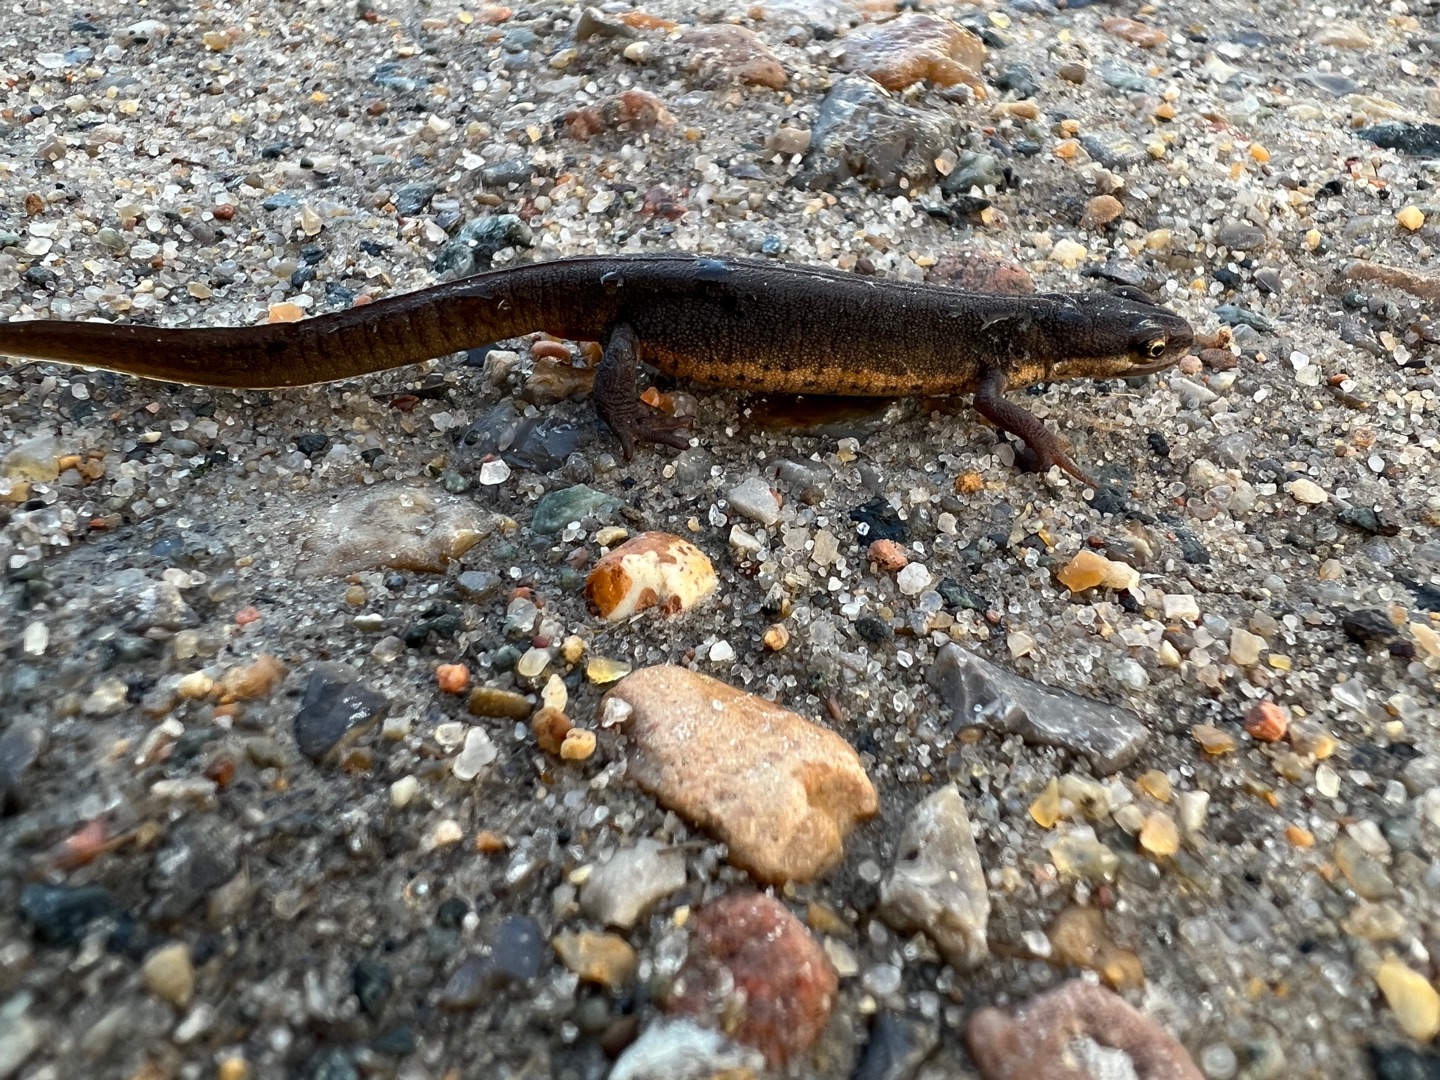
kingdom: Animalia
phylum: Chordata
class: Amphibia
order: Caudata
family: Salamandridae
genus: Lissotriton
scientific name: Lissotriton vulgaris
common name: Lille vandsalamander
